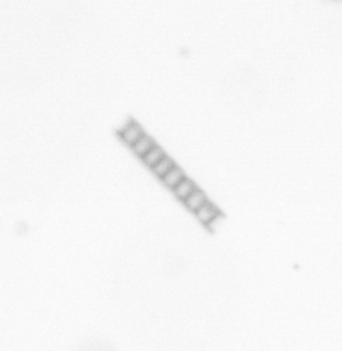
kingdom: Chromista
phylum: Ochrophyta
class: Bacillariophyceae
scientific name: Bacillariophyceae
